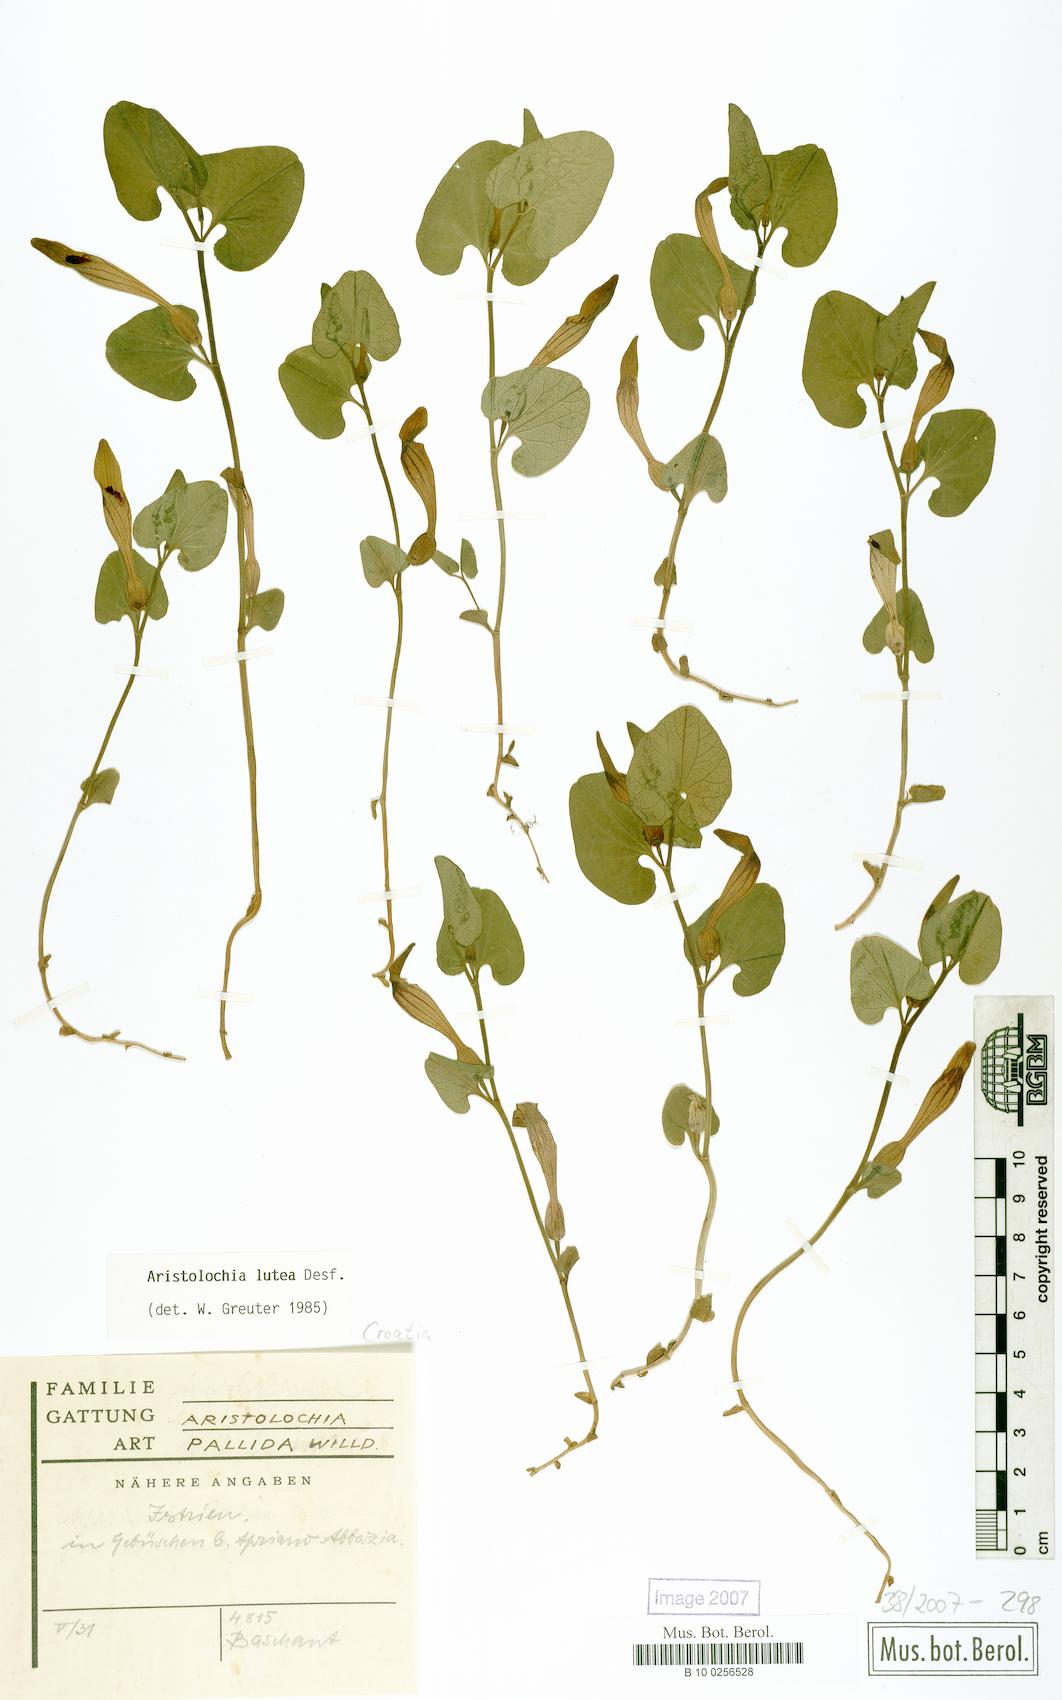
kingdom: Plantae
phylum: Tracheophyta
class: Magnoliopsida
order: Piperales
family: Aristolochiaceae
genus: Aristolochia
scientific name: Aristolochia lutea
